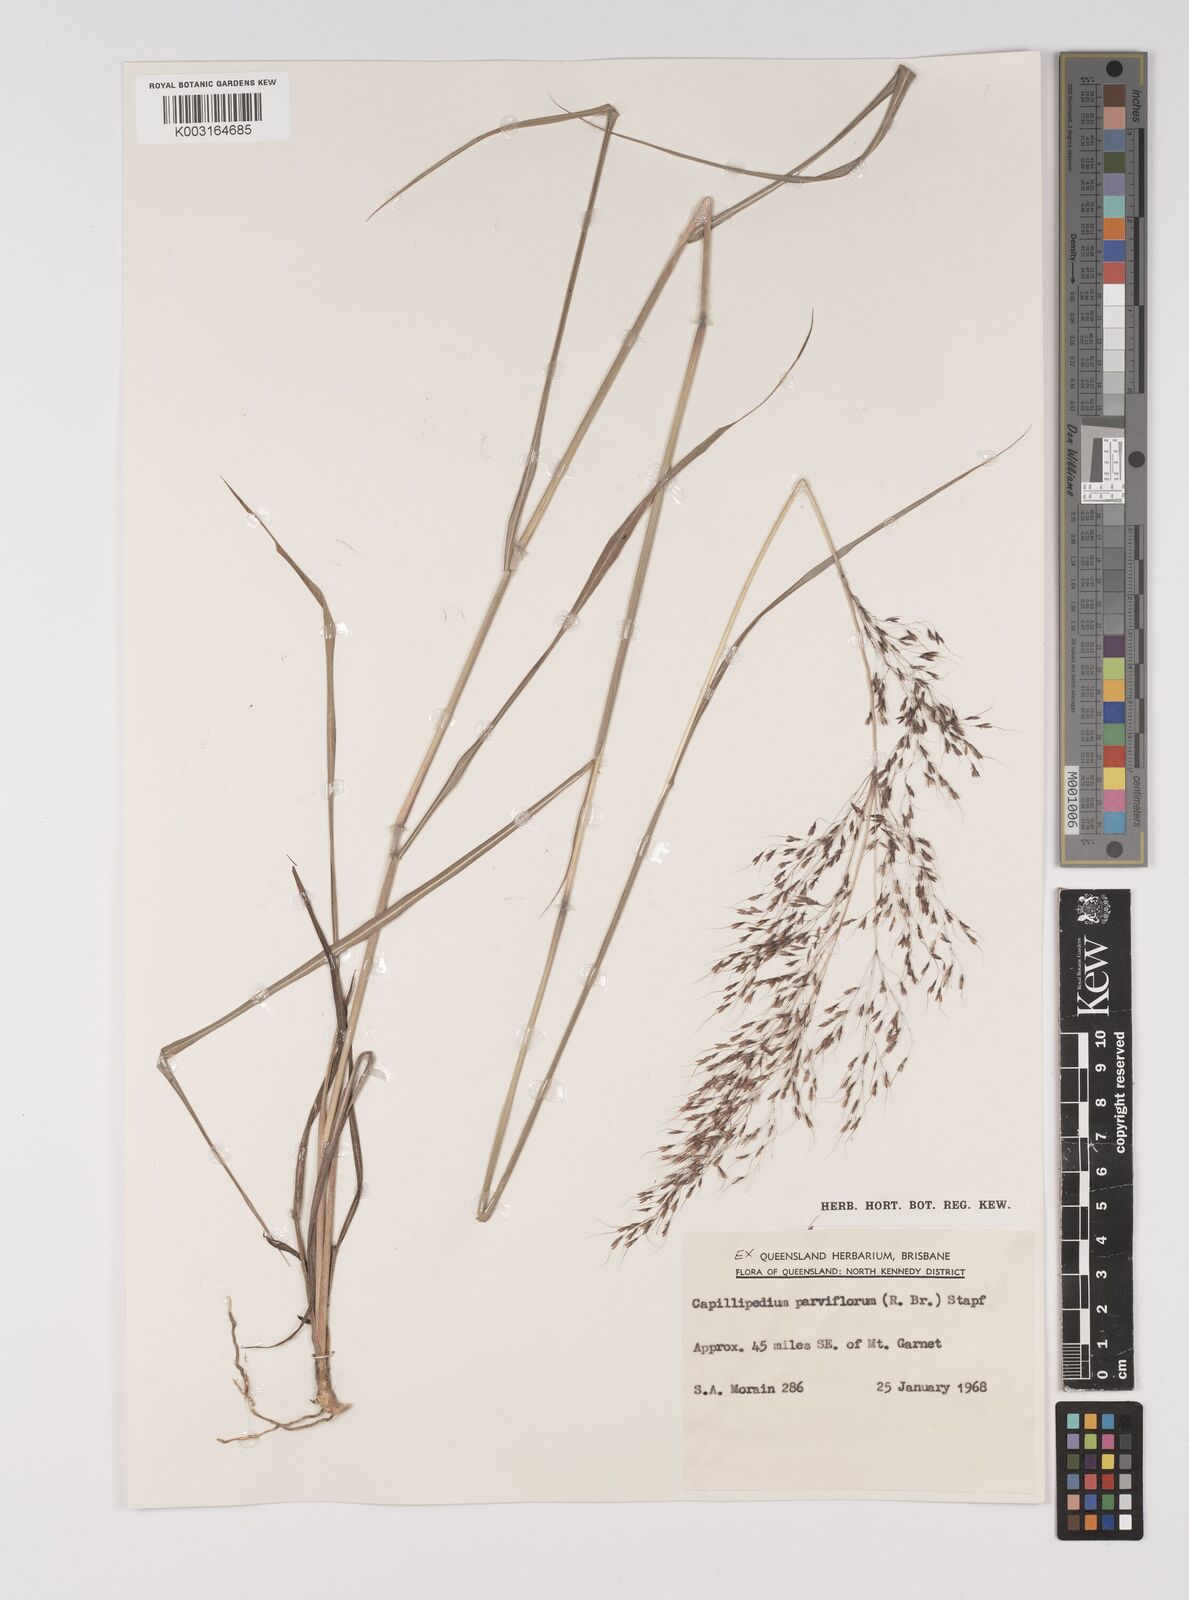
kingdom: Plantae
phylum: Tracheophyta
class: Liliopsida
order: Poales
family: Poaceae
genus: Capillipedium
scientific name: Capillipedium parviflorum
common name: Golden-beard
